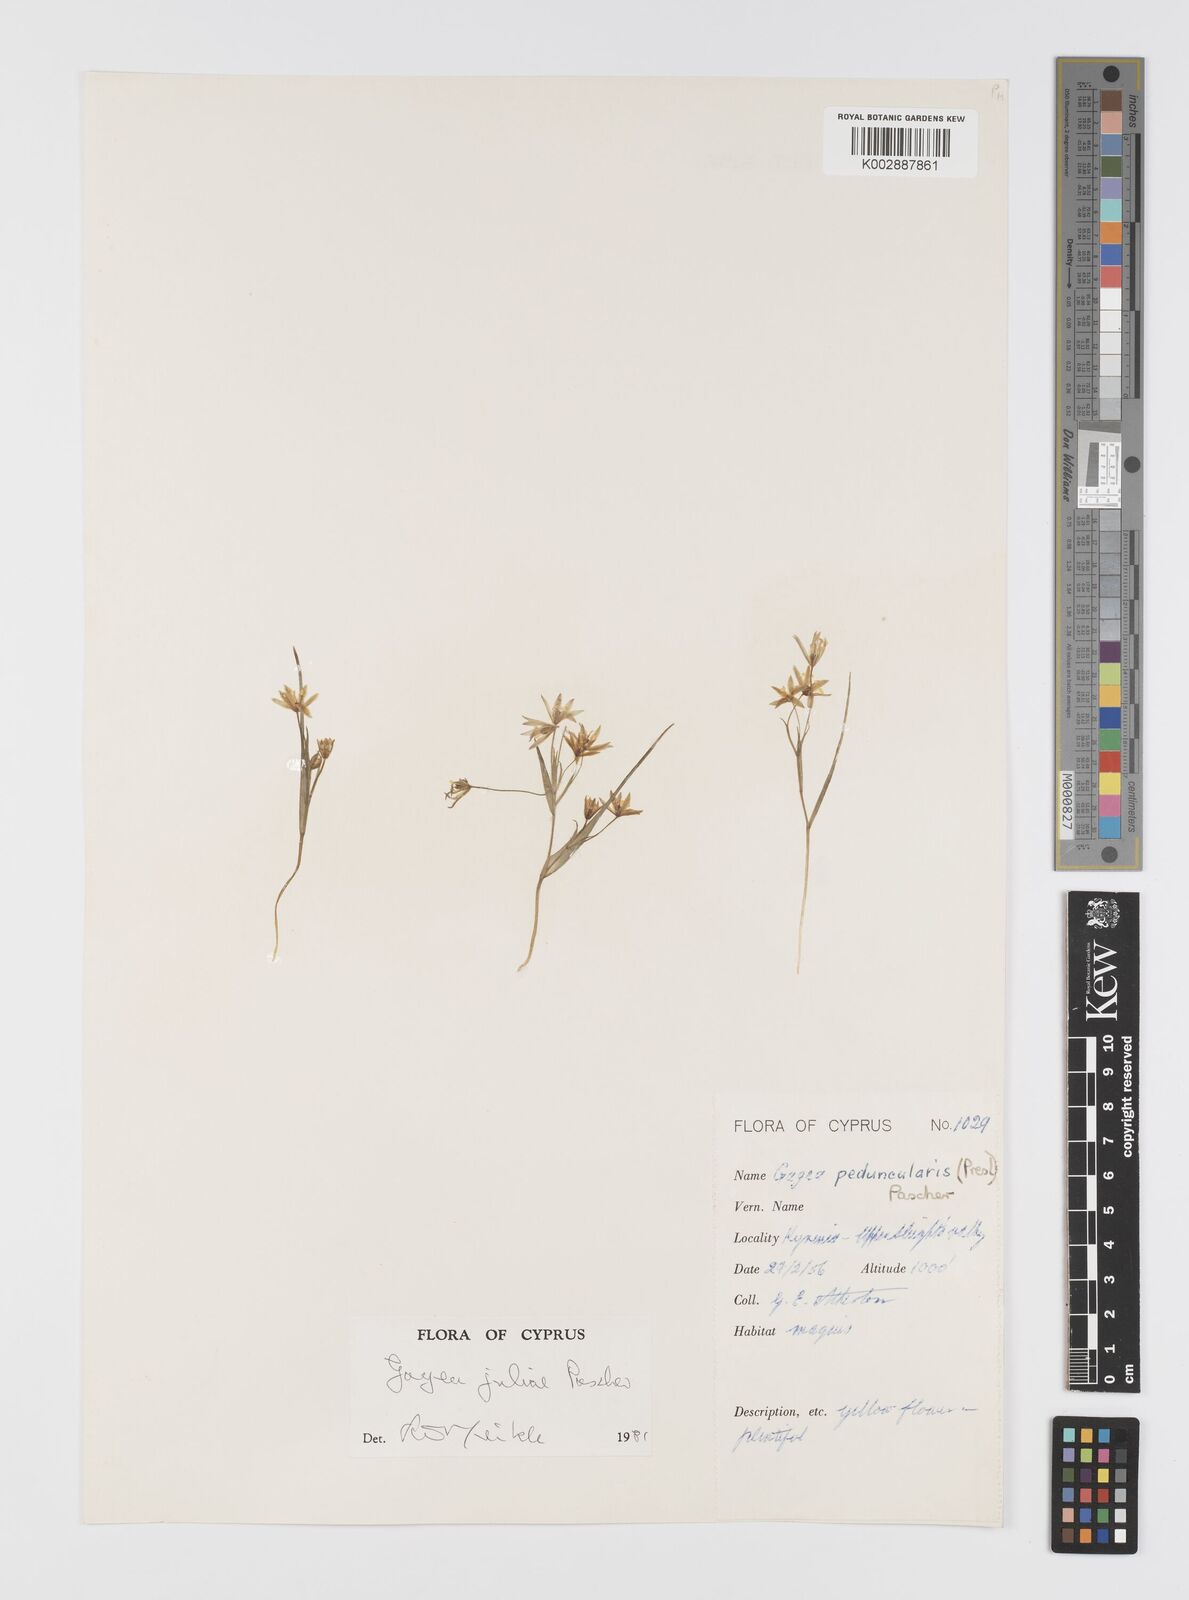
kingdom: Plantae
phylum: Tracheophyta
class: Liliopsida
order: Liliales
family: Liliaceae
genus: Gagea
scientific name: Gagea juliae
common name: Julia’s gagea
